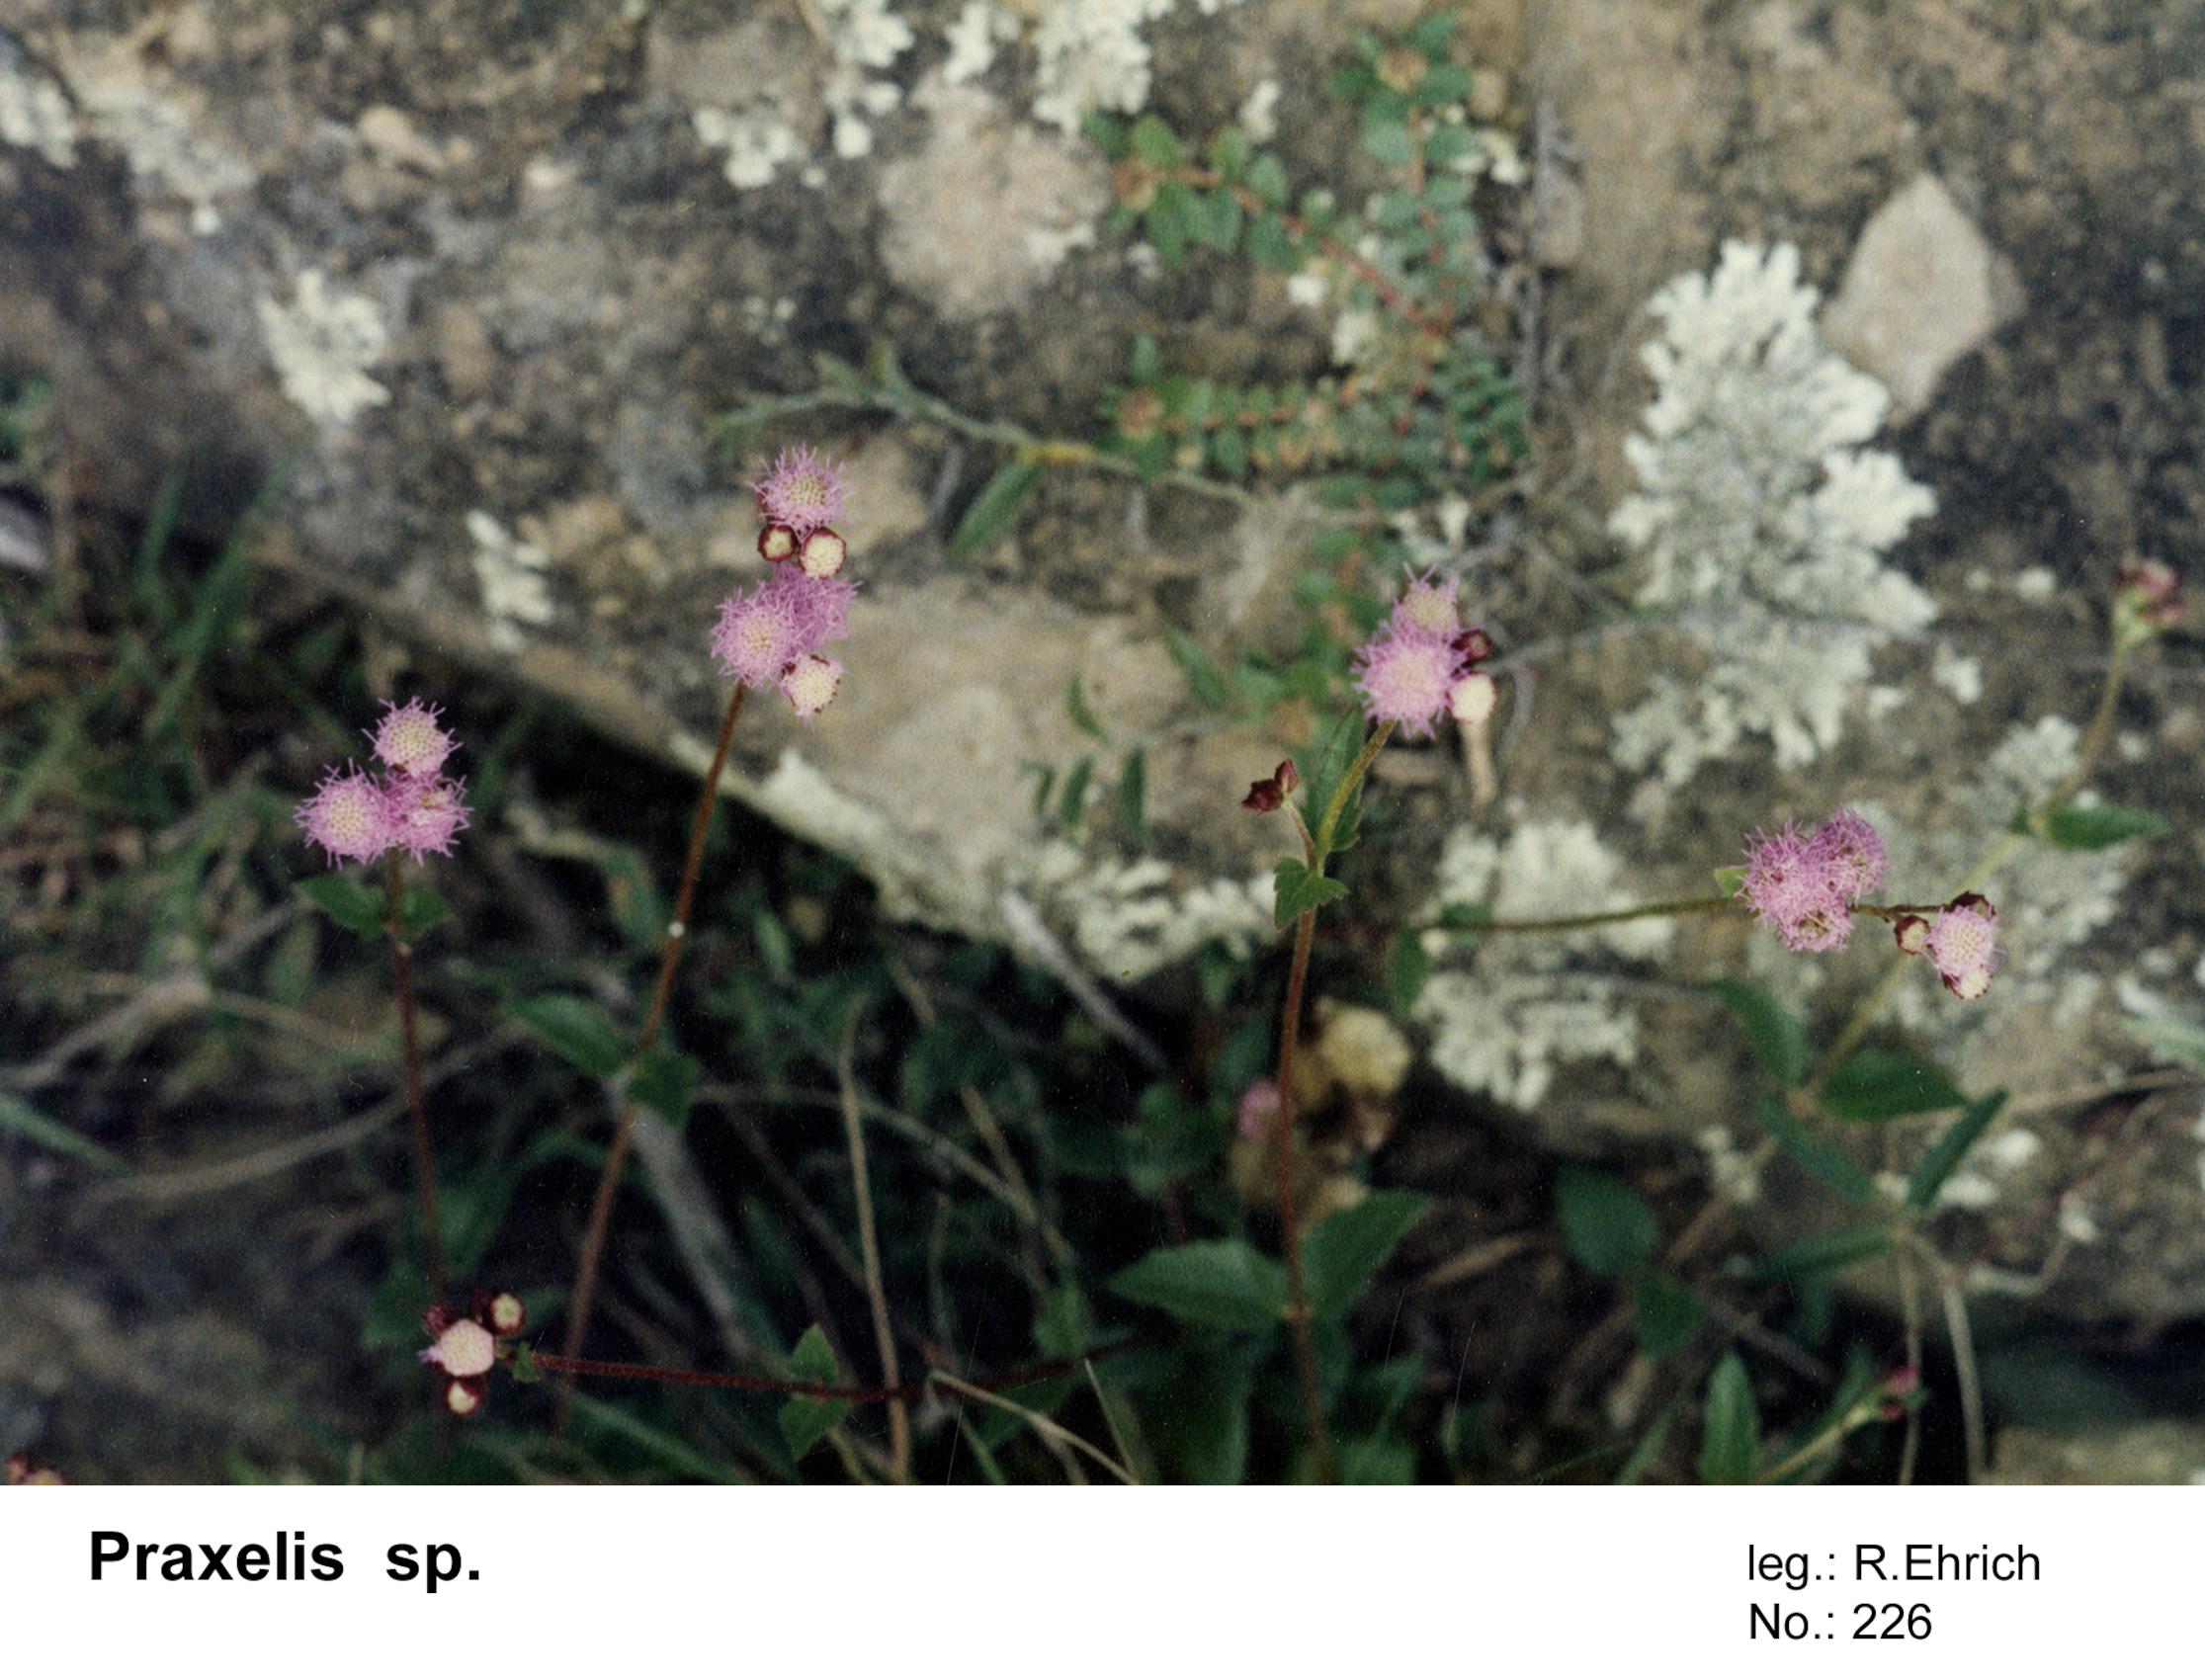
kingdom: Plantae
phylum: Tracheophyta
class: Magnoliopsida
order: Asterales
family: Asteraceae
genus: Praxelis
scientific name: Praxelis
